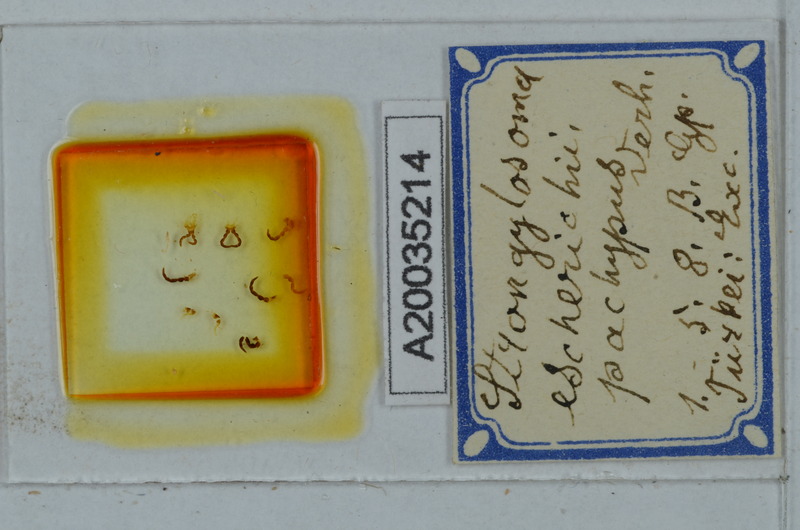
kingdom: Animalia
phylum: Arthropoda
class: Diplopoda
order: Polydesmida
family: Paradoxosomatidae
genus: Strongylosoma
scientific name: Strongylosoma escherichii
